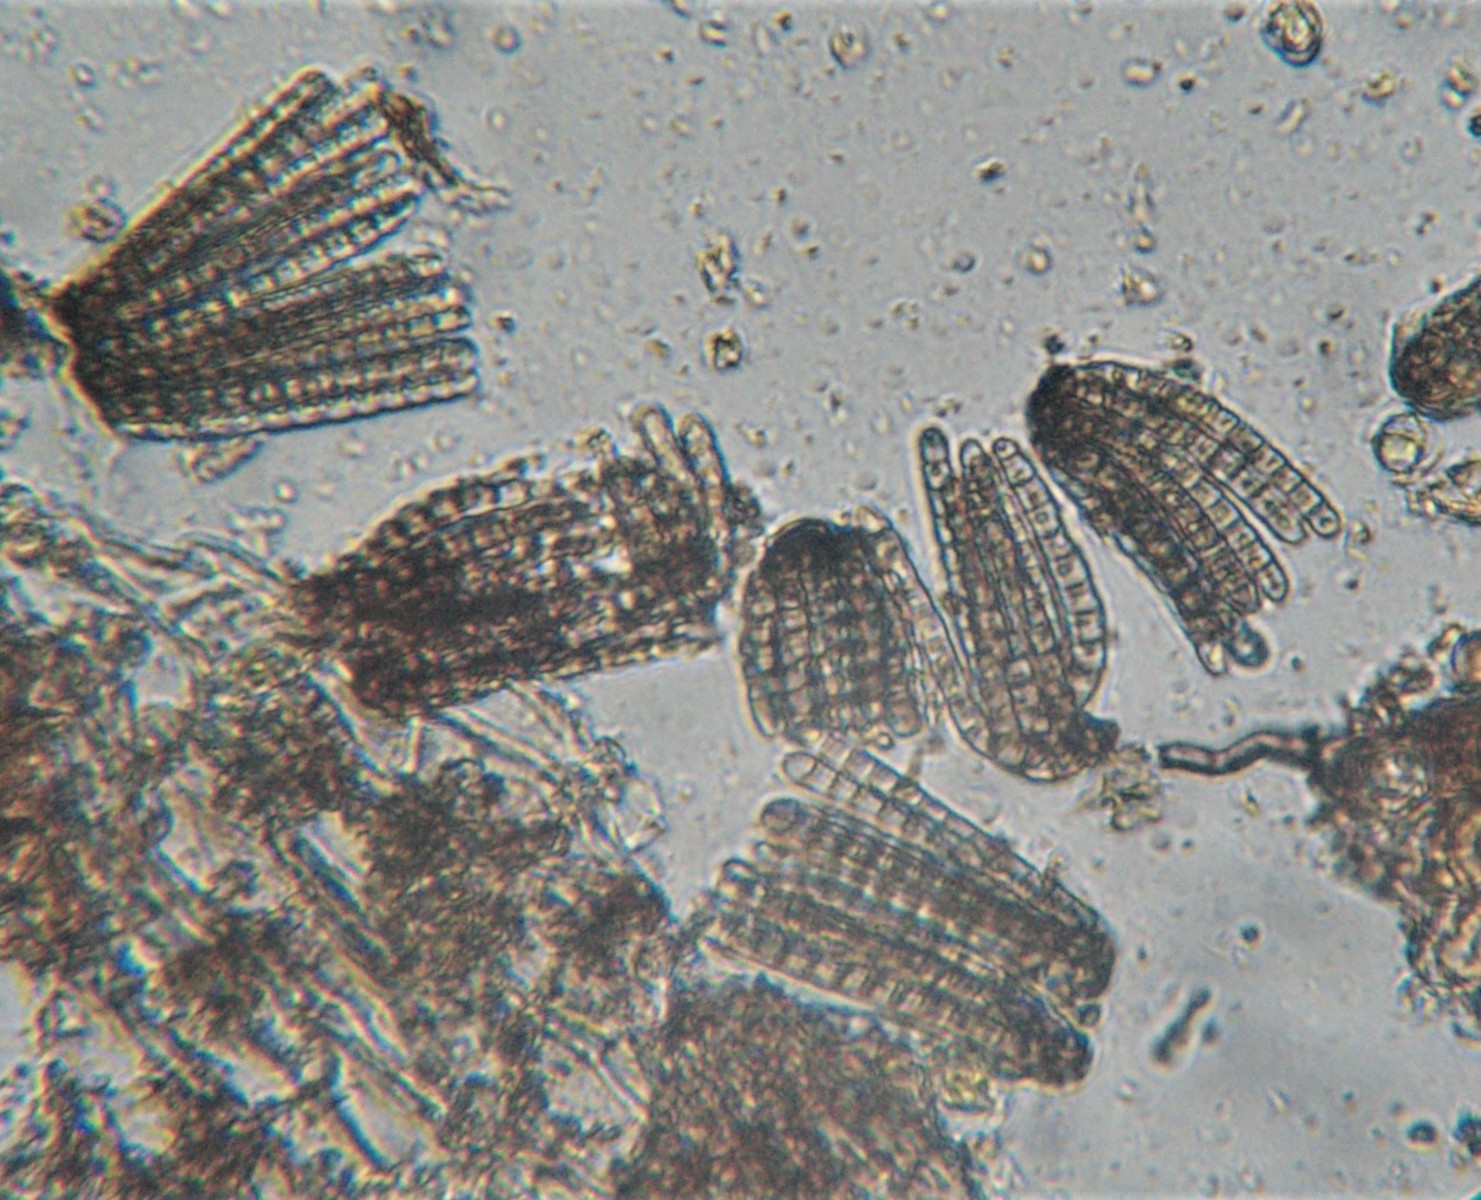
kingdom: Fungi
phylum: Ascomycota
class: Dothideomycetes
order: Pleosporales
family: Cryptocoryneaceae
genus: Cryptocoryneum
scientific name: Cryptocoryneum condensatum
